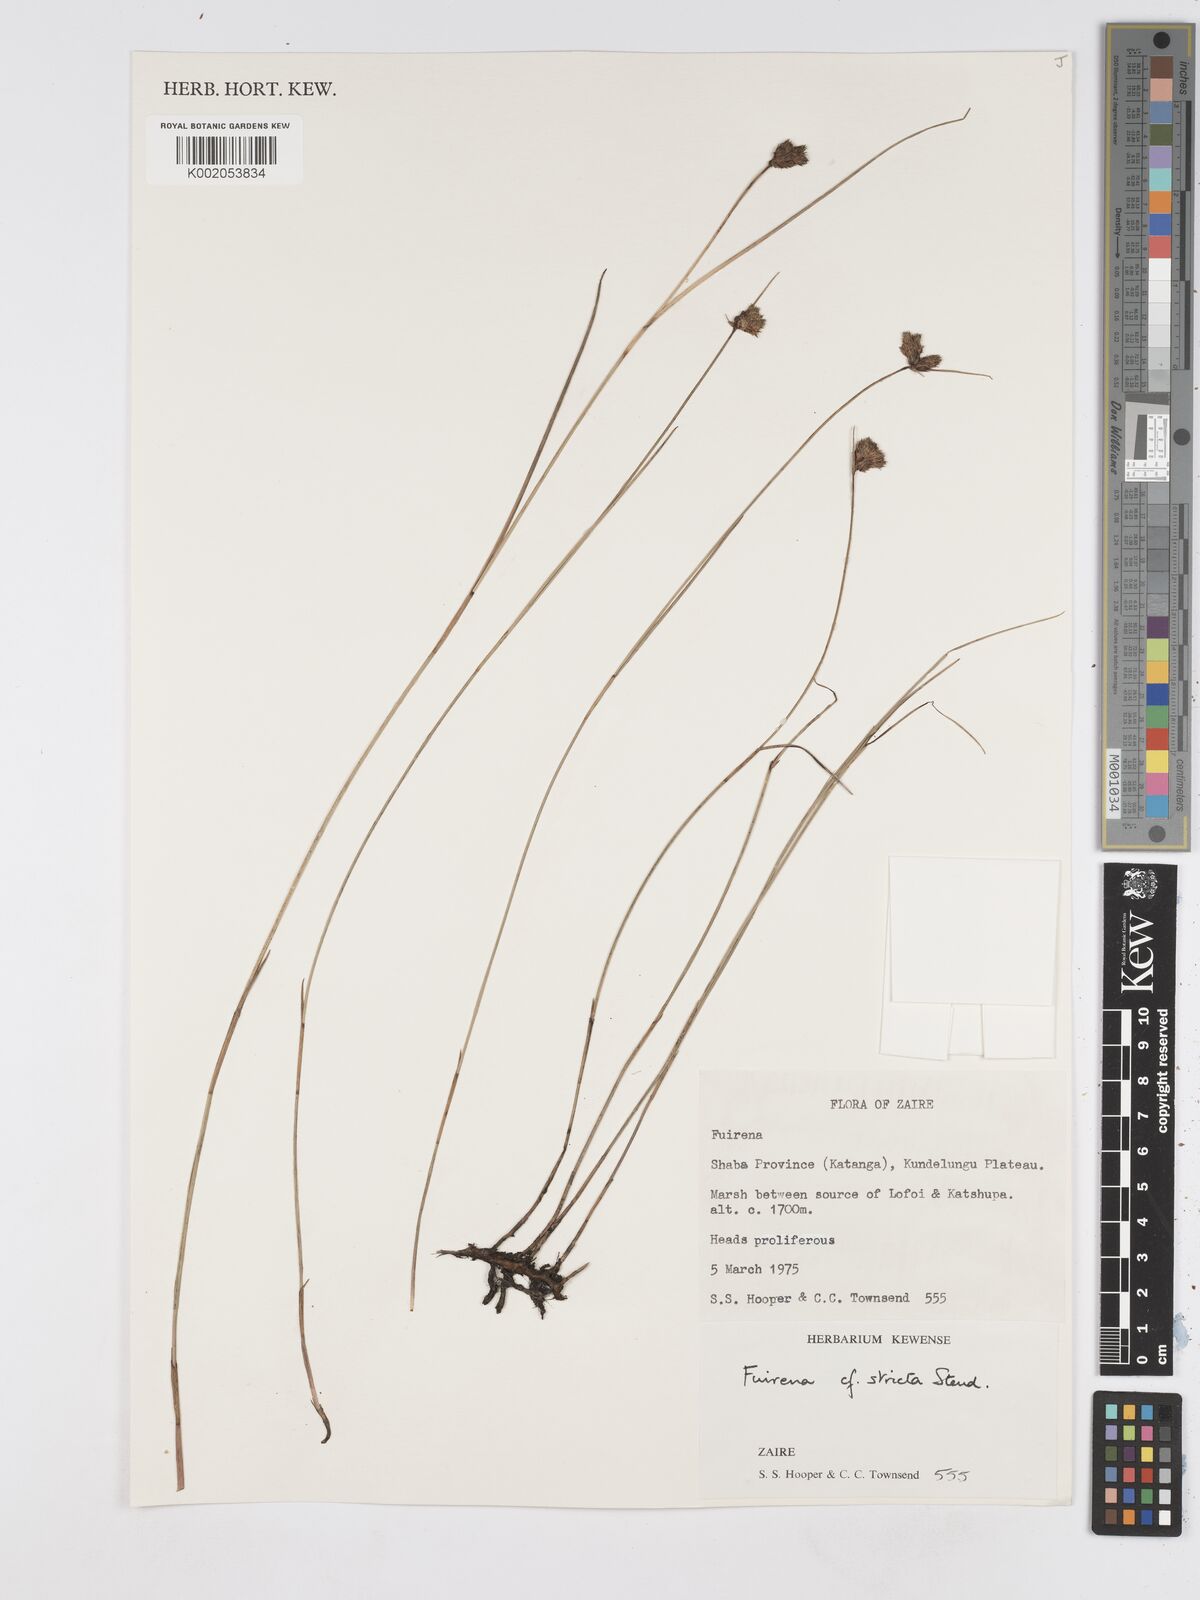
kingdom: Plantae
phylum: Tracheophyta
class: Liliopsida
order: Poales
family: Cyperaceae
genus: Fuirena
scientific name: Fuirena stricta
